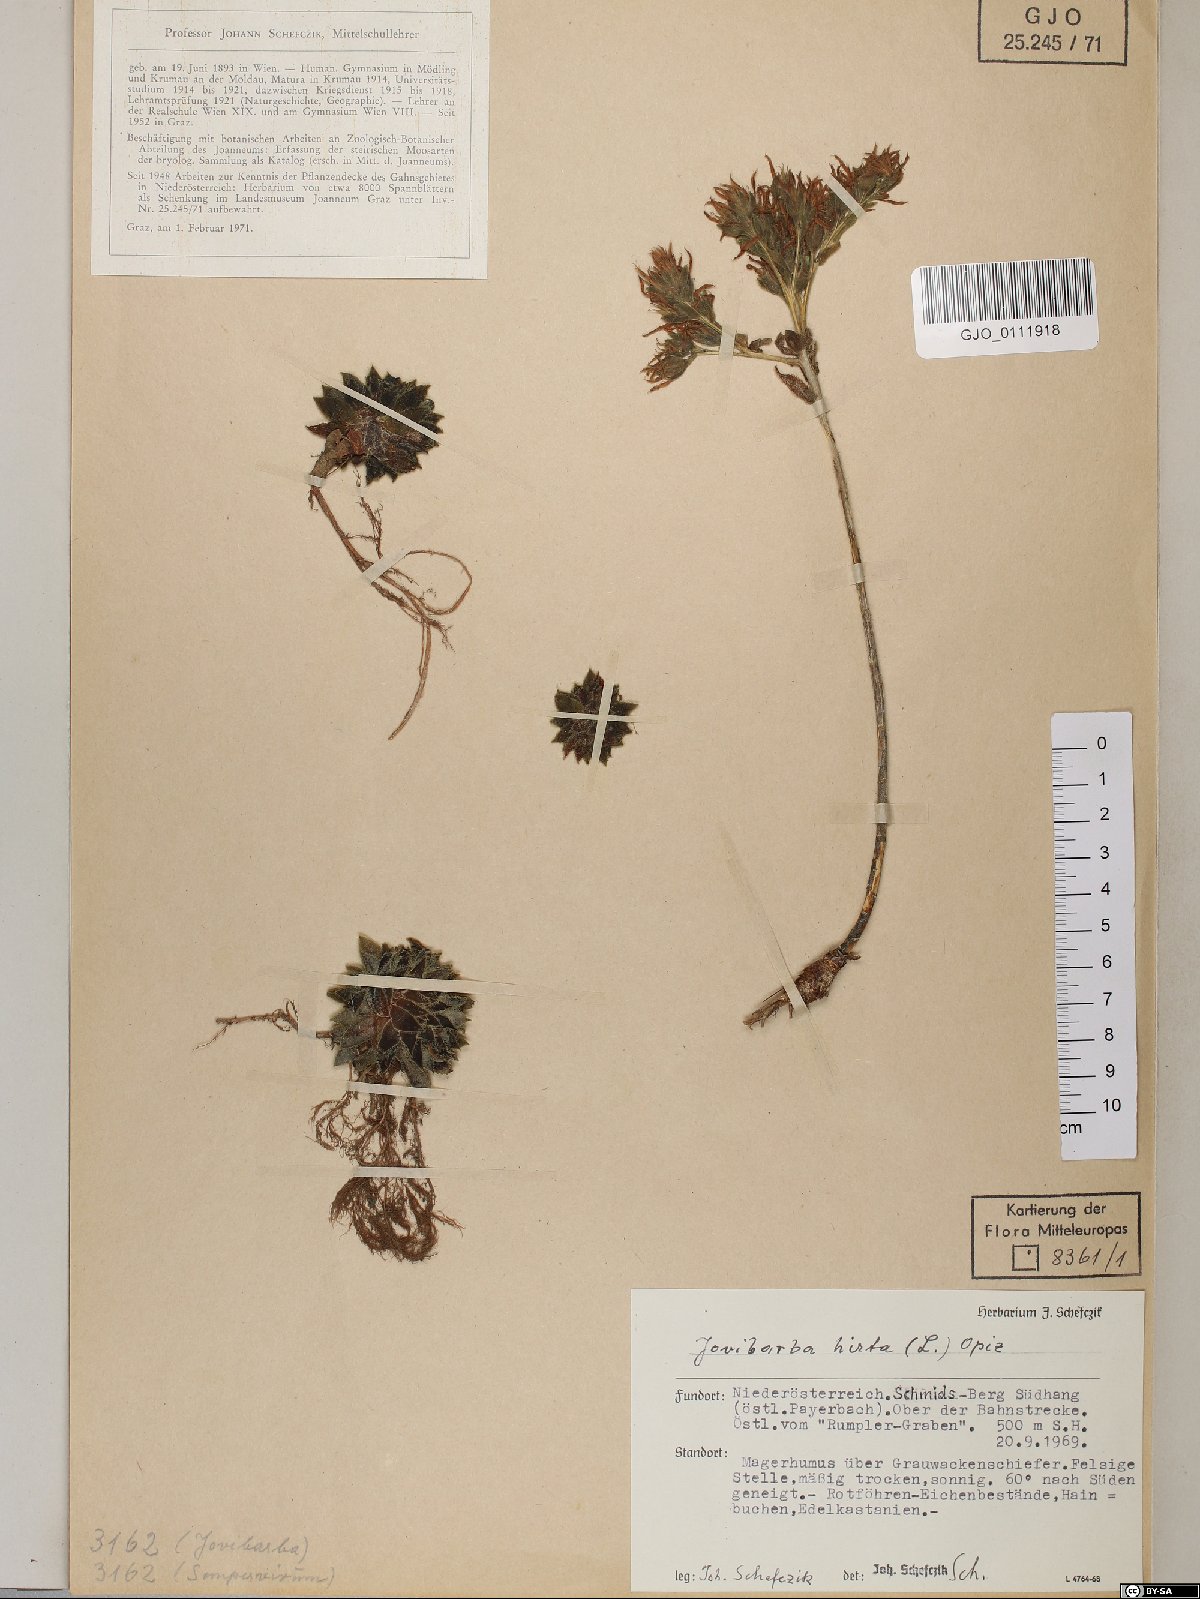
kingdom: Plantae
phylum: Tracheophyta
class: Magnoliopsida
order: Saxifragales
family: Crassulaceae
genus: Sempervivum
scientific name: Sempervivum globiferum
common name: Rolling hen-and-chicks
